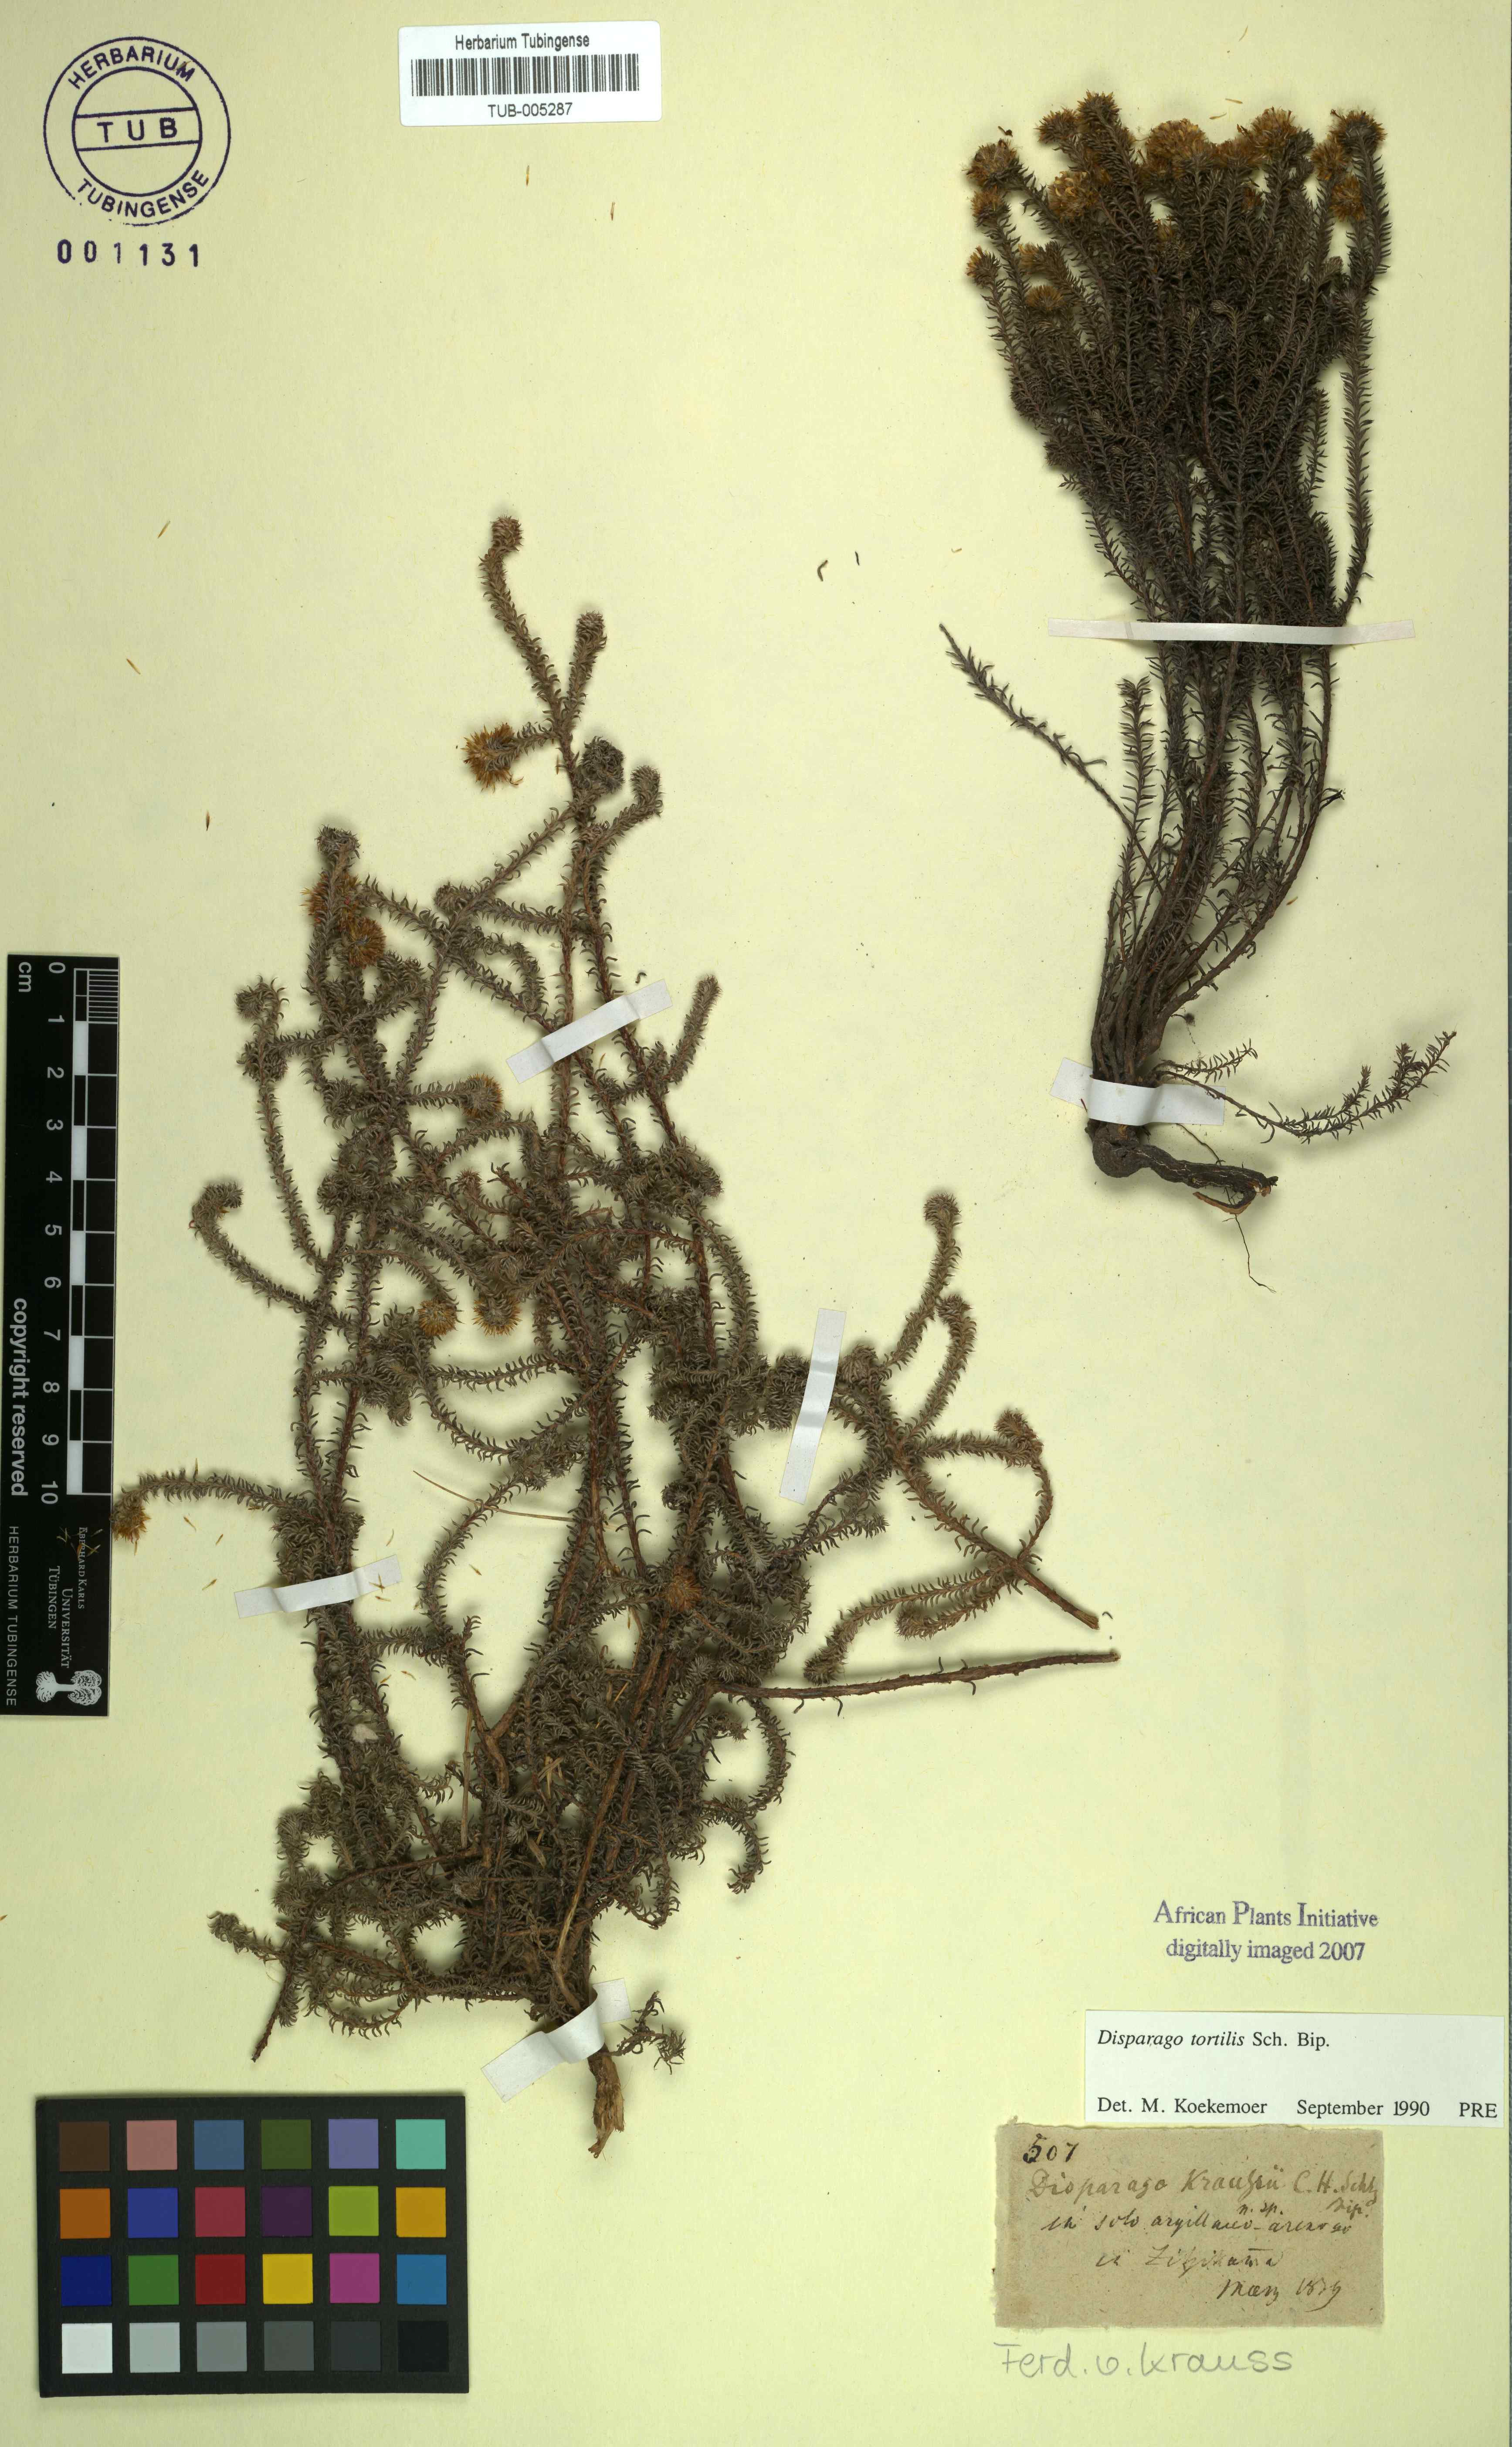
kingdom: Plantae
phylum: Tracheophyta
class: Magnoliopsida
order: Asterales
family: Asteraceae
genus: Disparago
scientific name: Disparago kraussii
